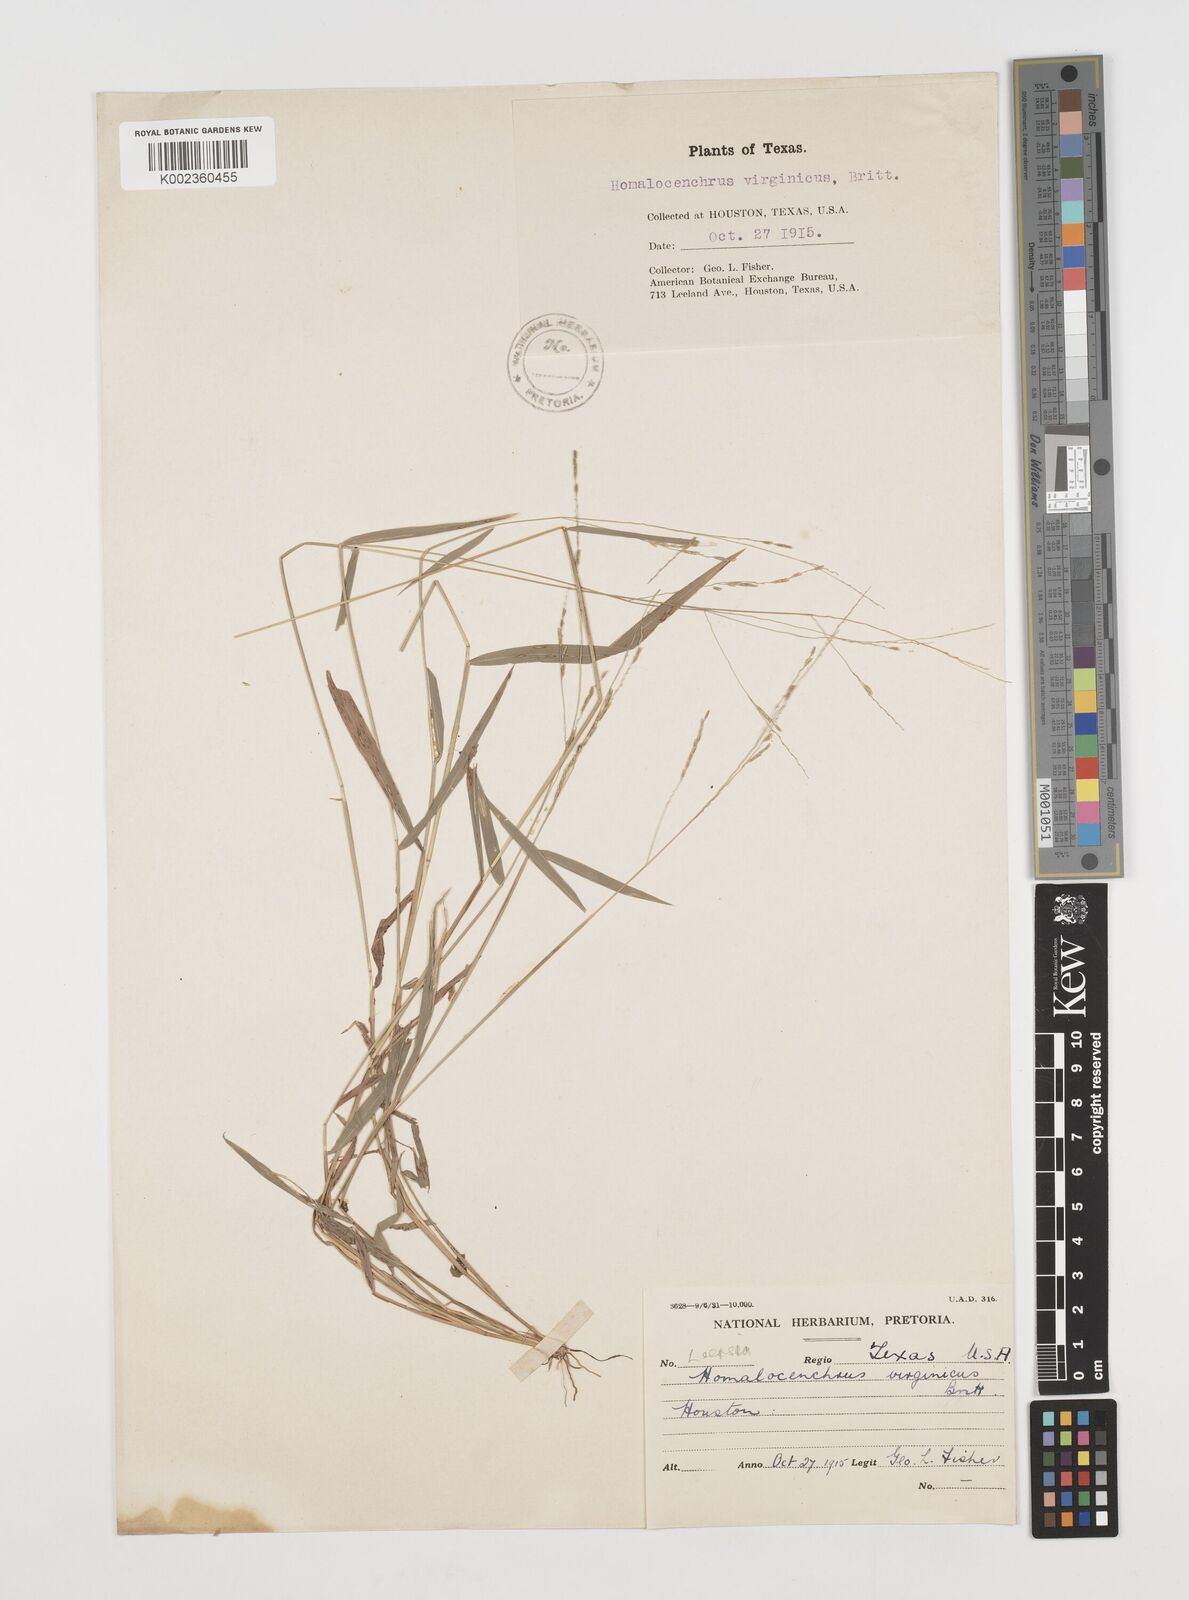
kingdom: Plantae
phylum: Tracheophyta
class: Liliopsida
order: Poales
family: Poaceae
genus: Leersia
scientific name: Leersia virginica
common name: White cutgrass
